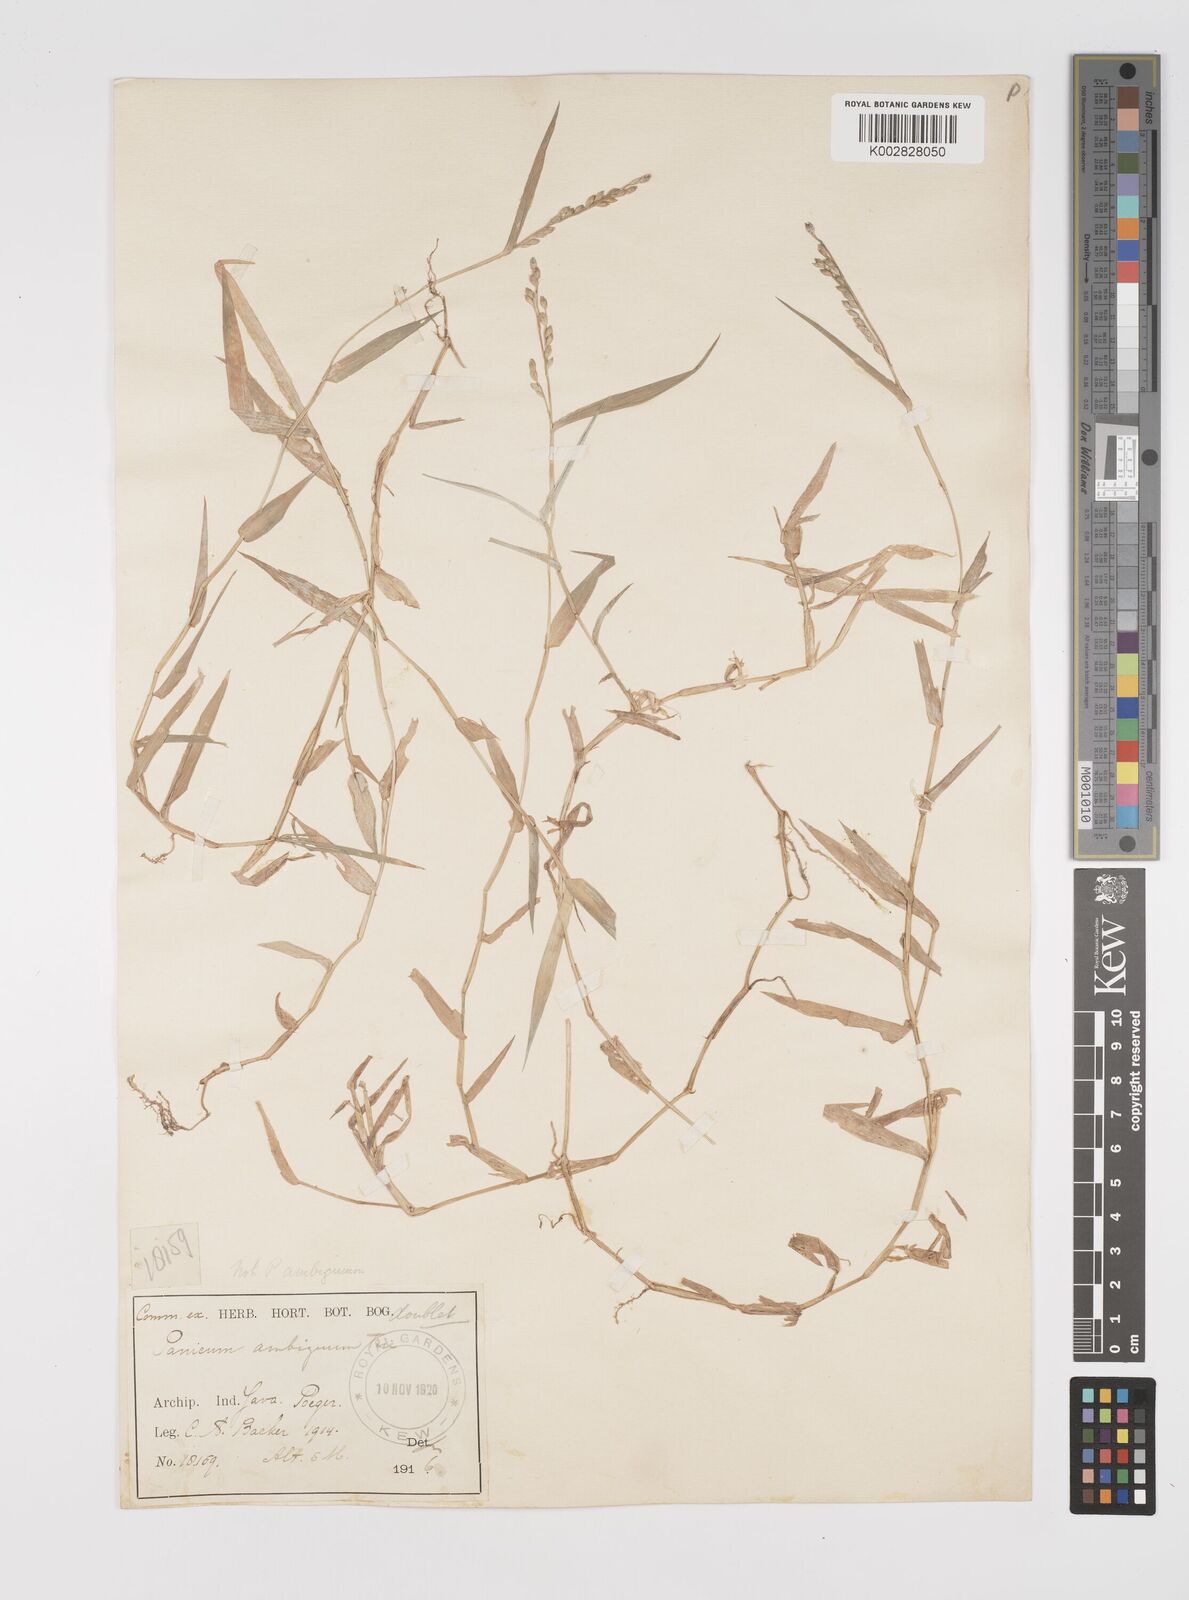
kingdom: Plantae
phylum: Tracheophyta
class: Liliopsida
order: Poales
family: Poaceae
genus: Acroceras
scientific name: Acroceras munroanum
